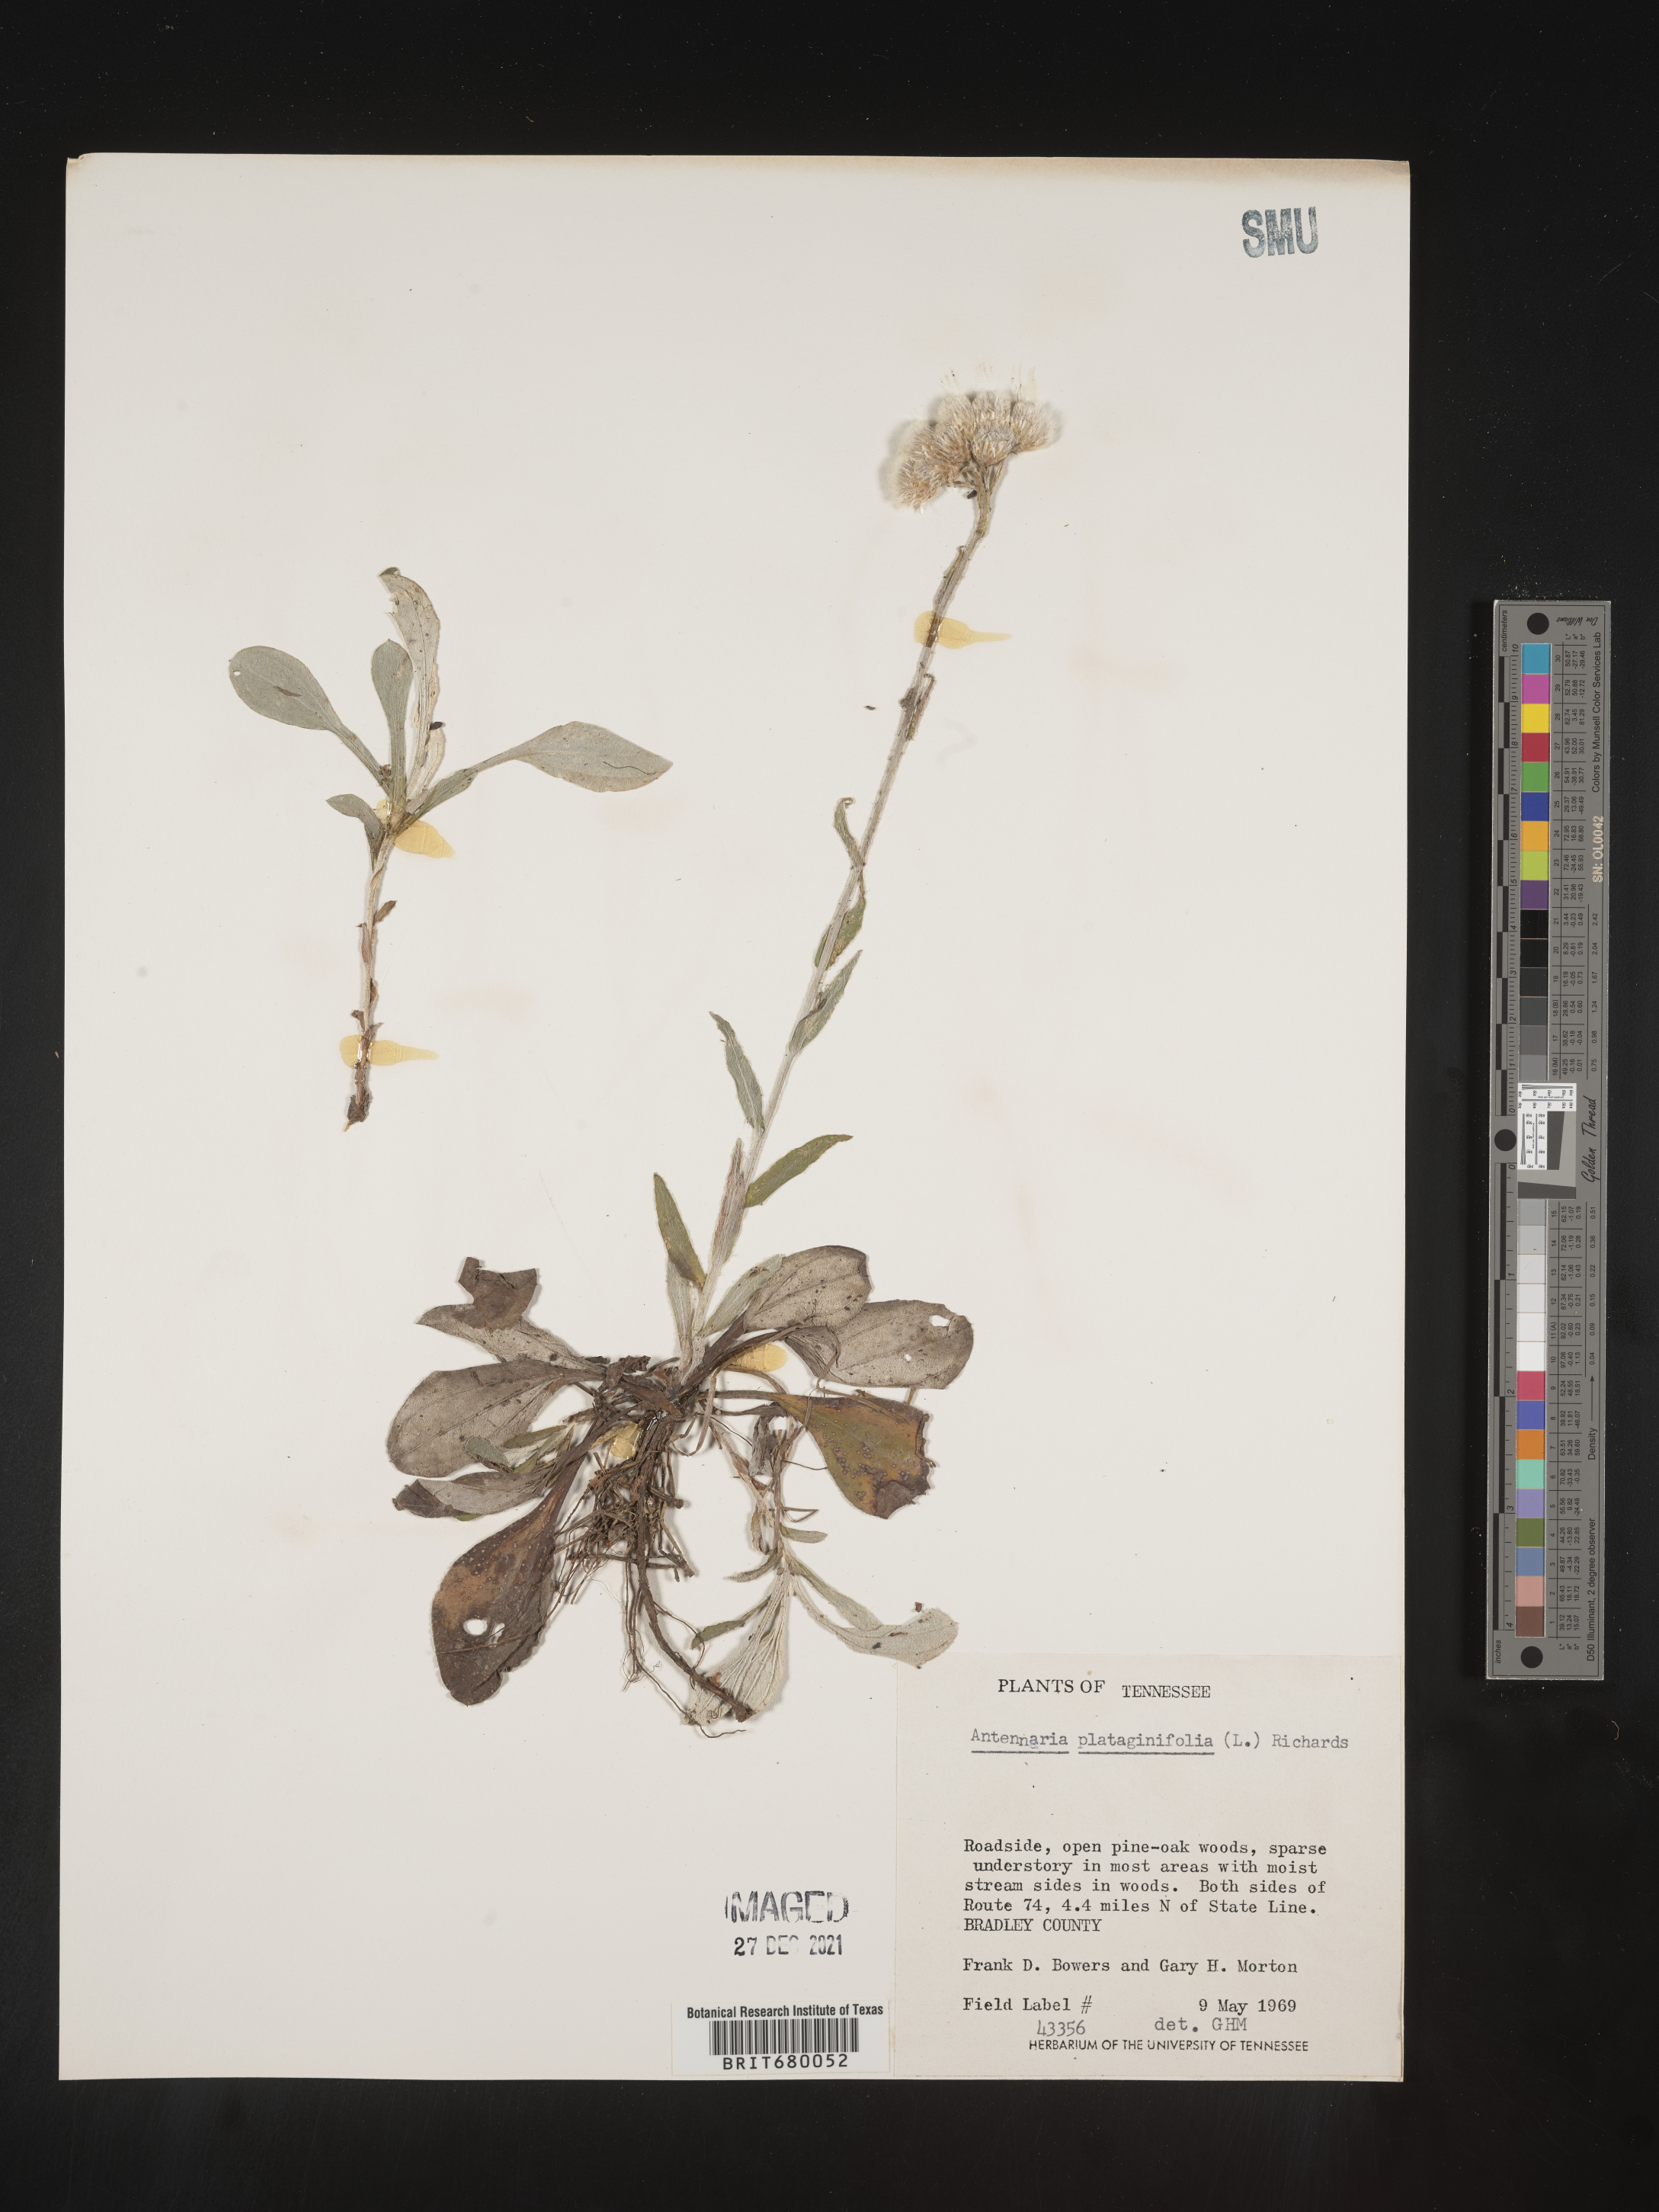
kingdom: Plantae
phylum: Tracheophyta
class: Magnoliopsida
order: Asterales
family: Asteraceae
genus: Antennaria
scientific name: Antennaria plantaginifolia
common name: Plantain-leaved pussytoes
